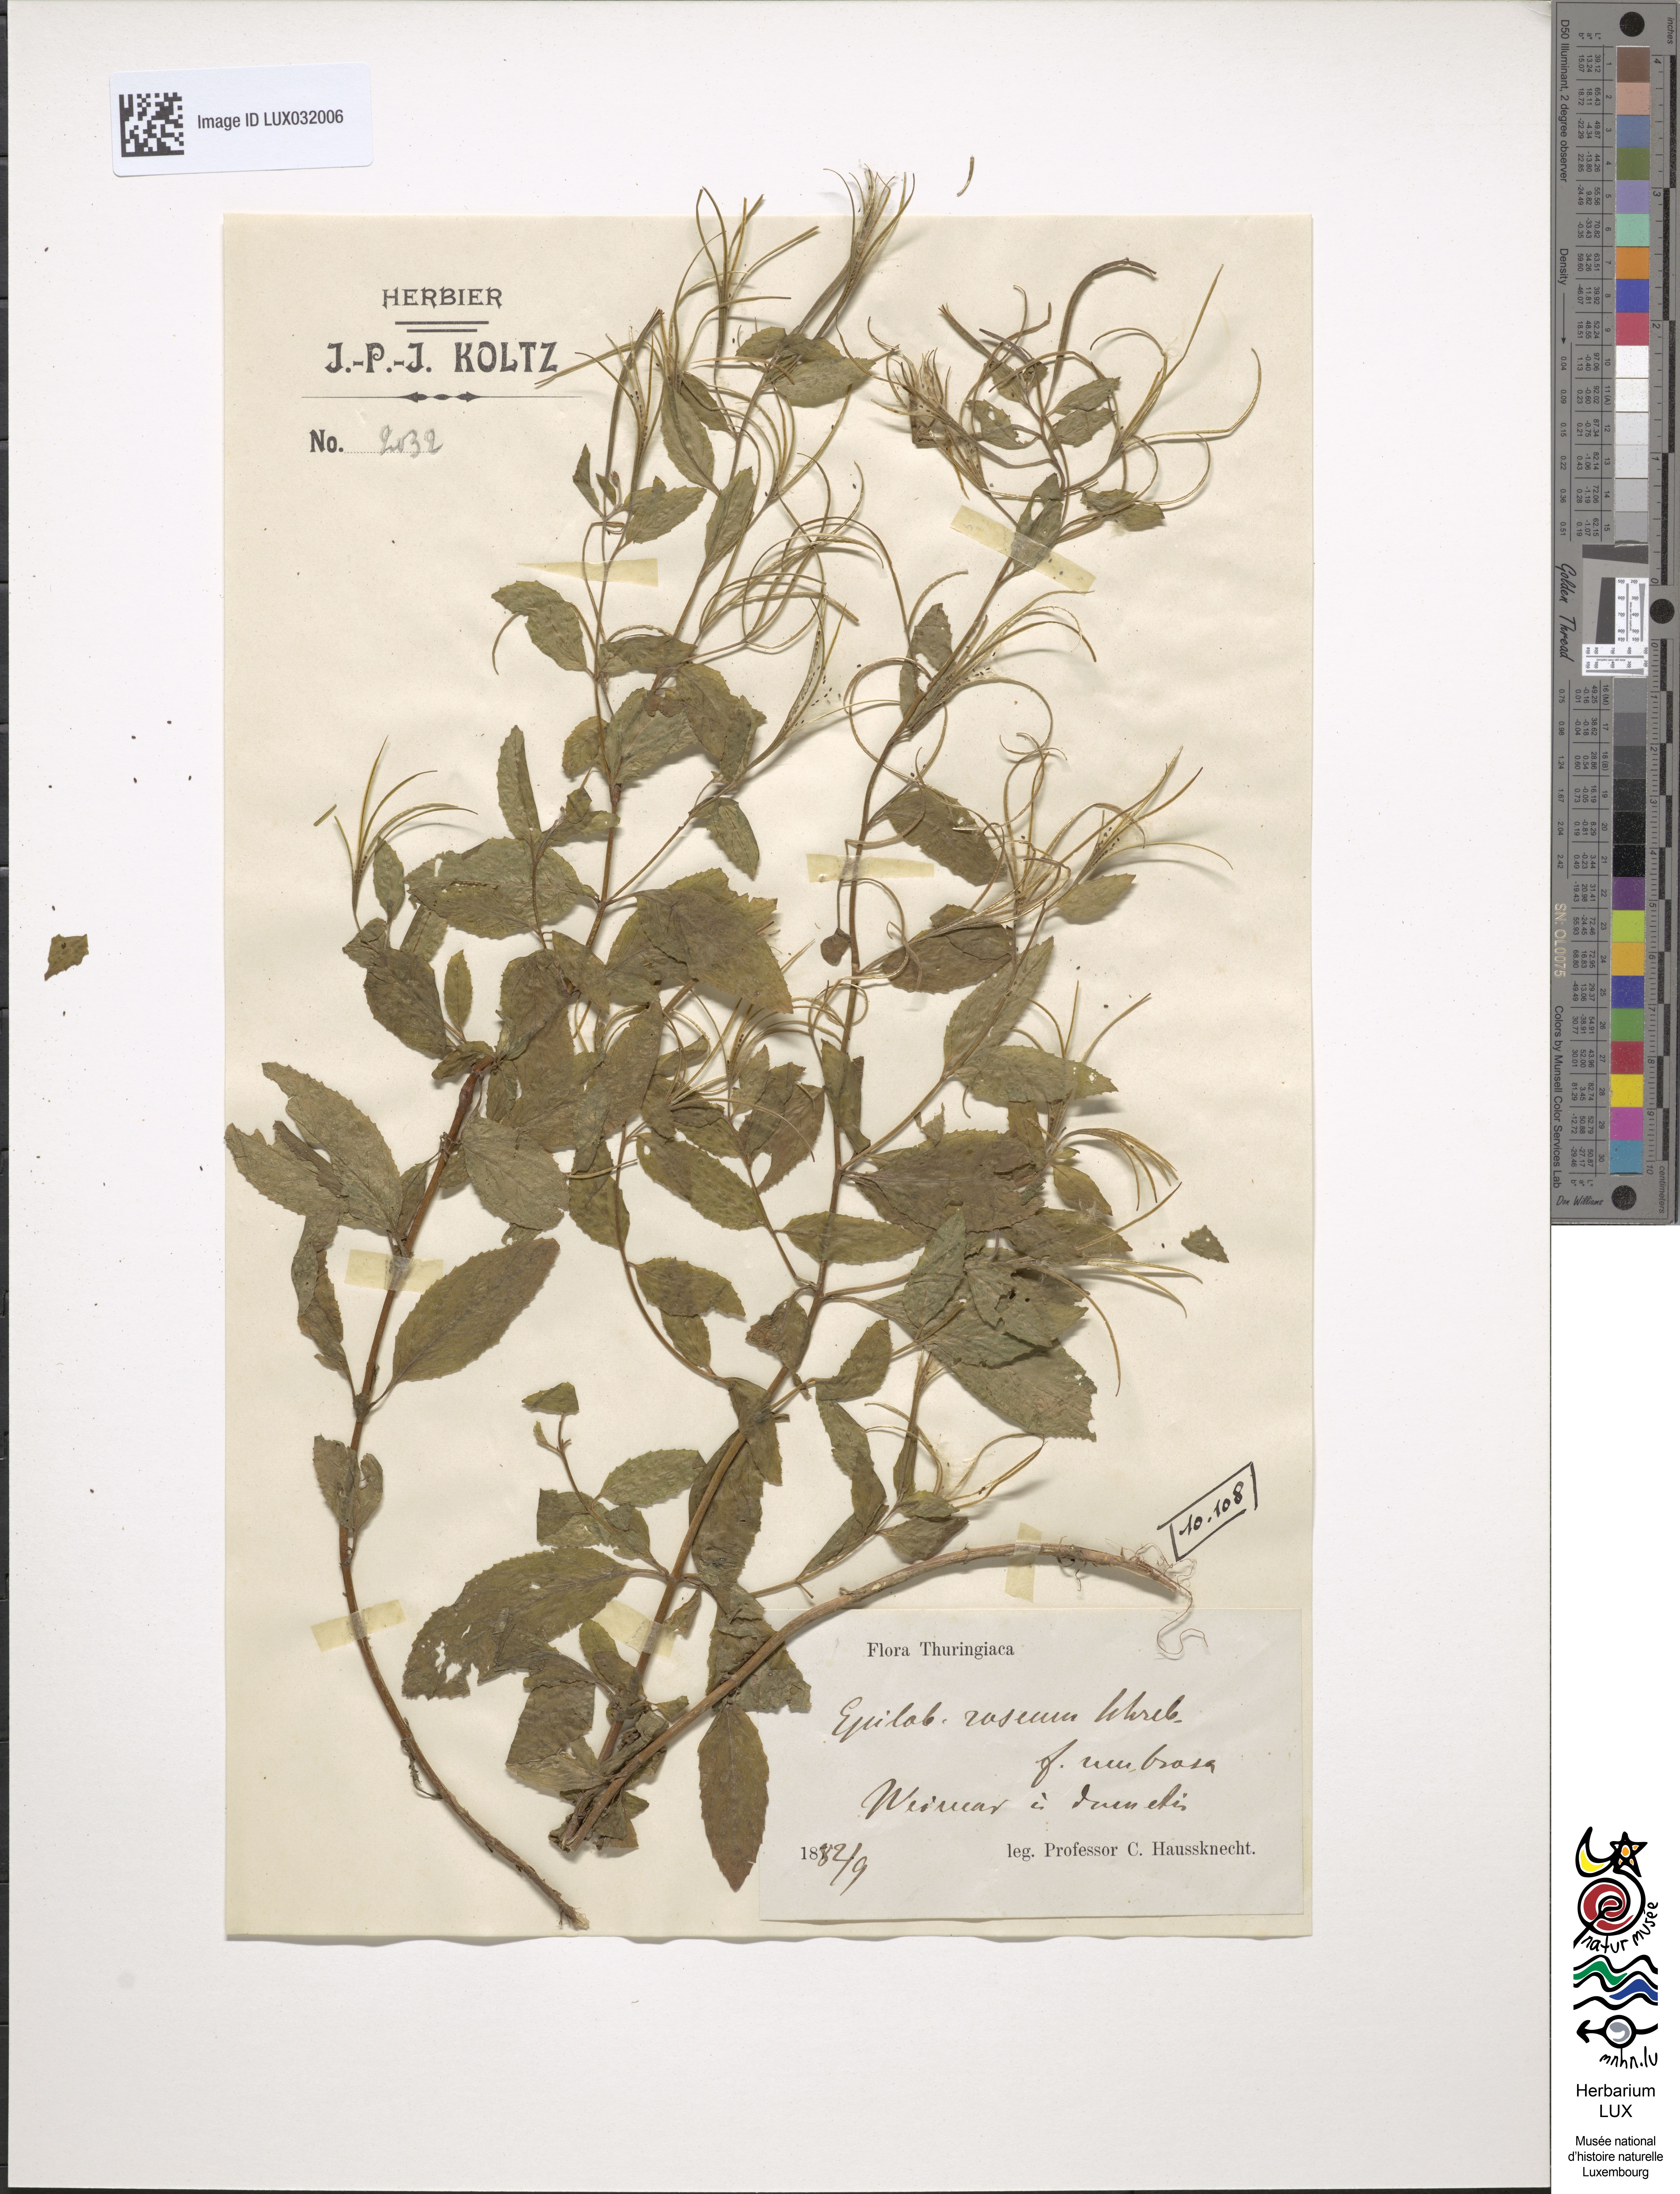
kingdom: Plantae
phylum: Tracheophyta
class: Magnoliopsida
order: Myrtales
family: Onagraceae
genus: Epilobium
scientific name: Epilobium roseum
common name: Pale willowherb
